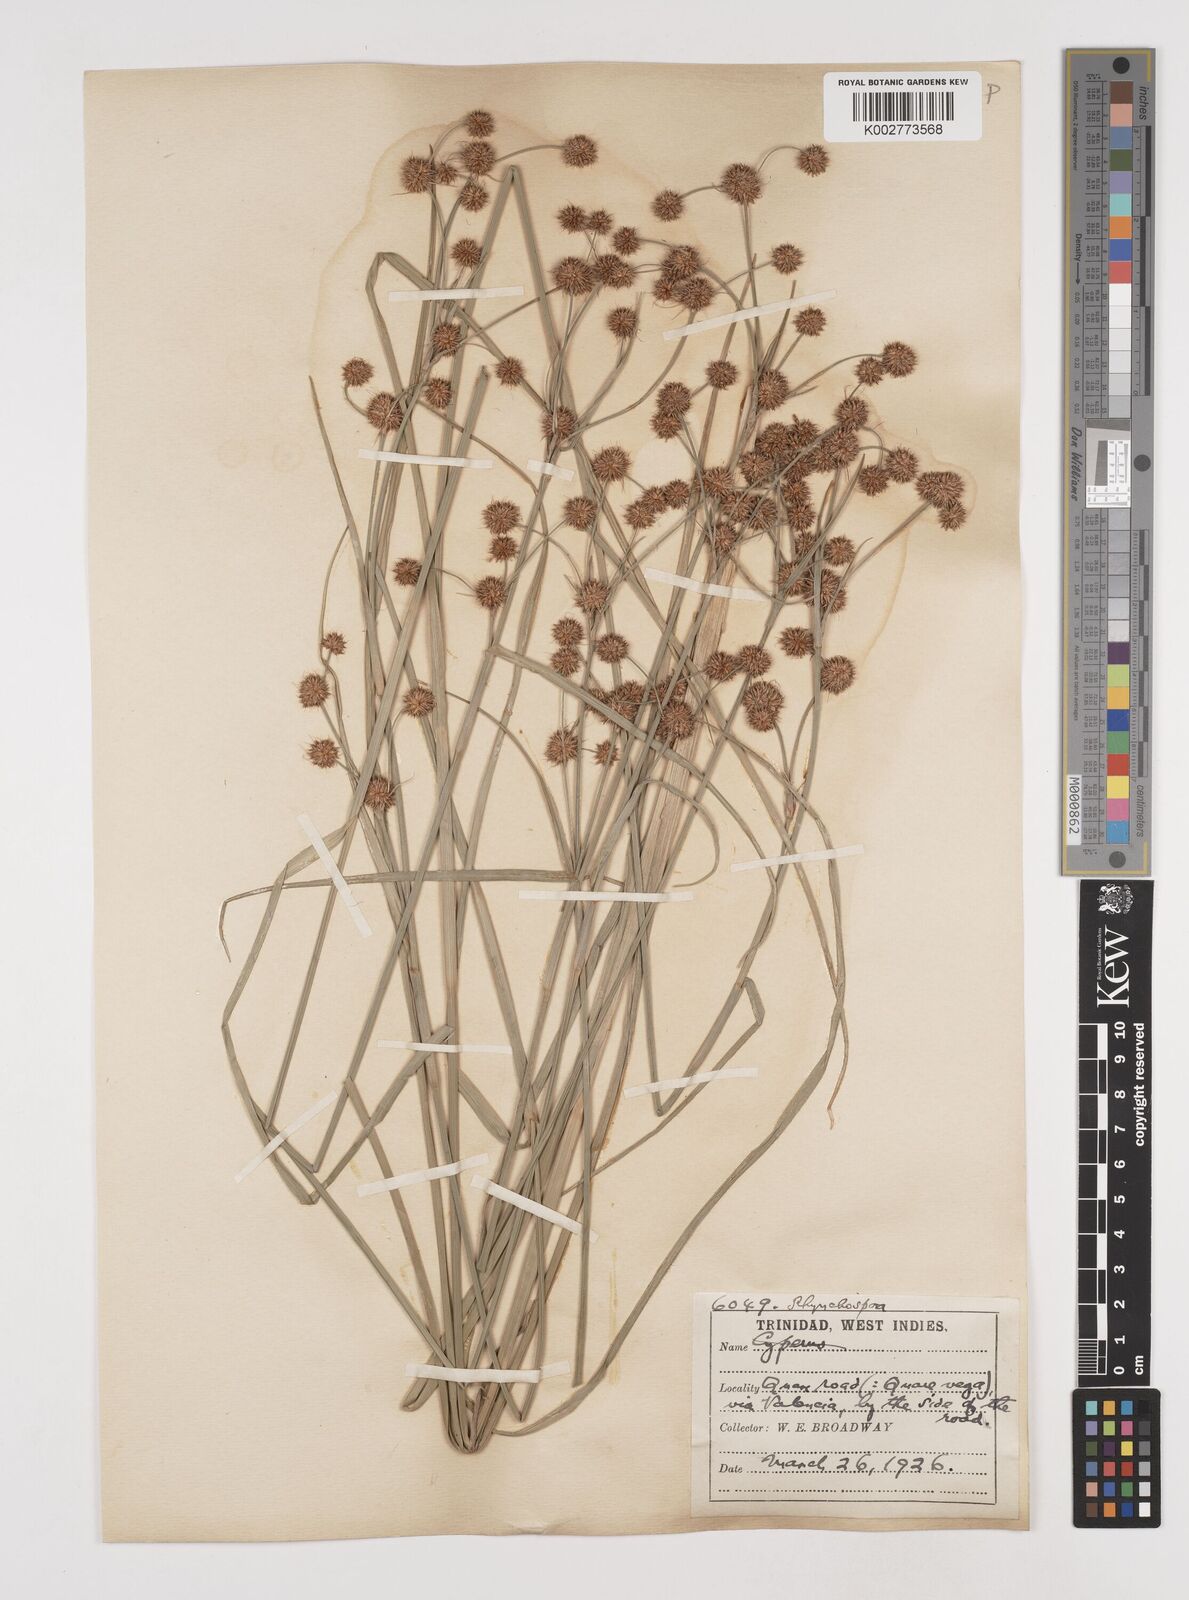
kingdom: Plantae
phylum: Tracheophyta
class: Liliopsida
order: Poales
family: Cyperaceae
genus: Rhynchospora
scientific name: Rhynchospora holoschoenoides
